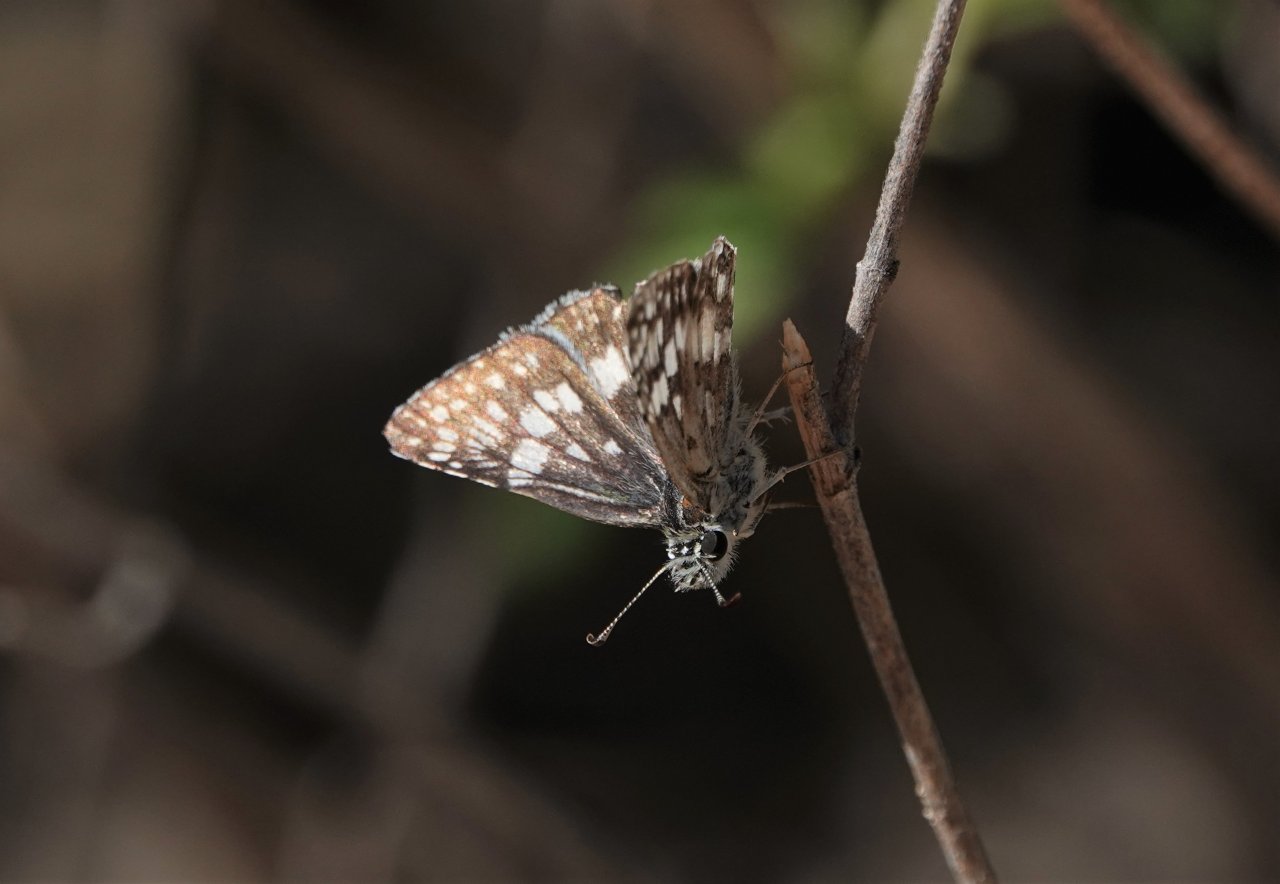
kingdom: Animalia
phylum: Arthropoda
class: Insecta
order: Lepidoptera
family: Hesperiidae
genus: Pyrgus
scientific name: Pyrgus communis
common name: White Checkered-Skipper
